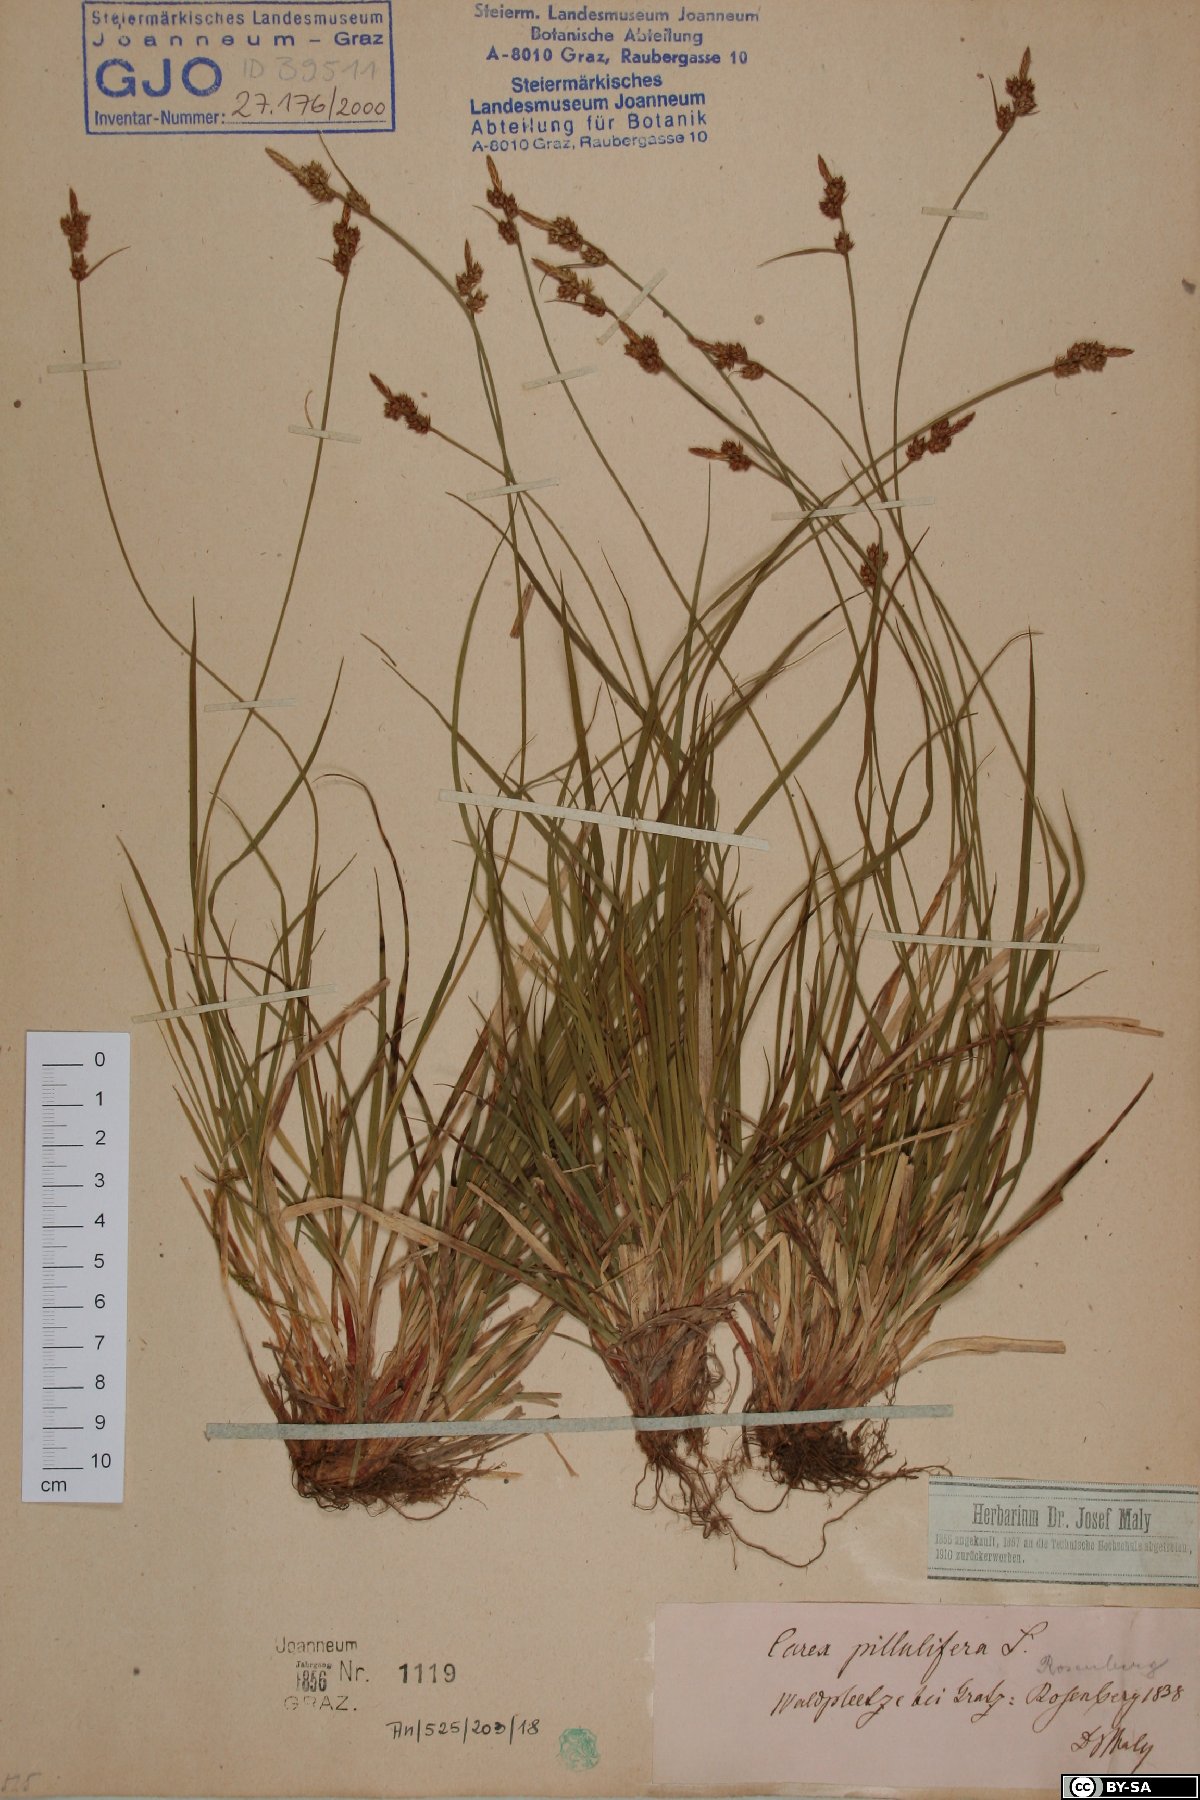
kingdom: Plantae
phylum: Tracheophyta
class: Liliopsida
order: Poales
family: Cyperaceae
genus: Carex
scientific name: Carex pilulifera
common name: Pill sedge
